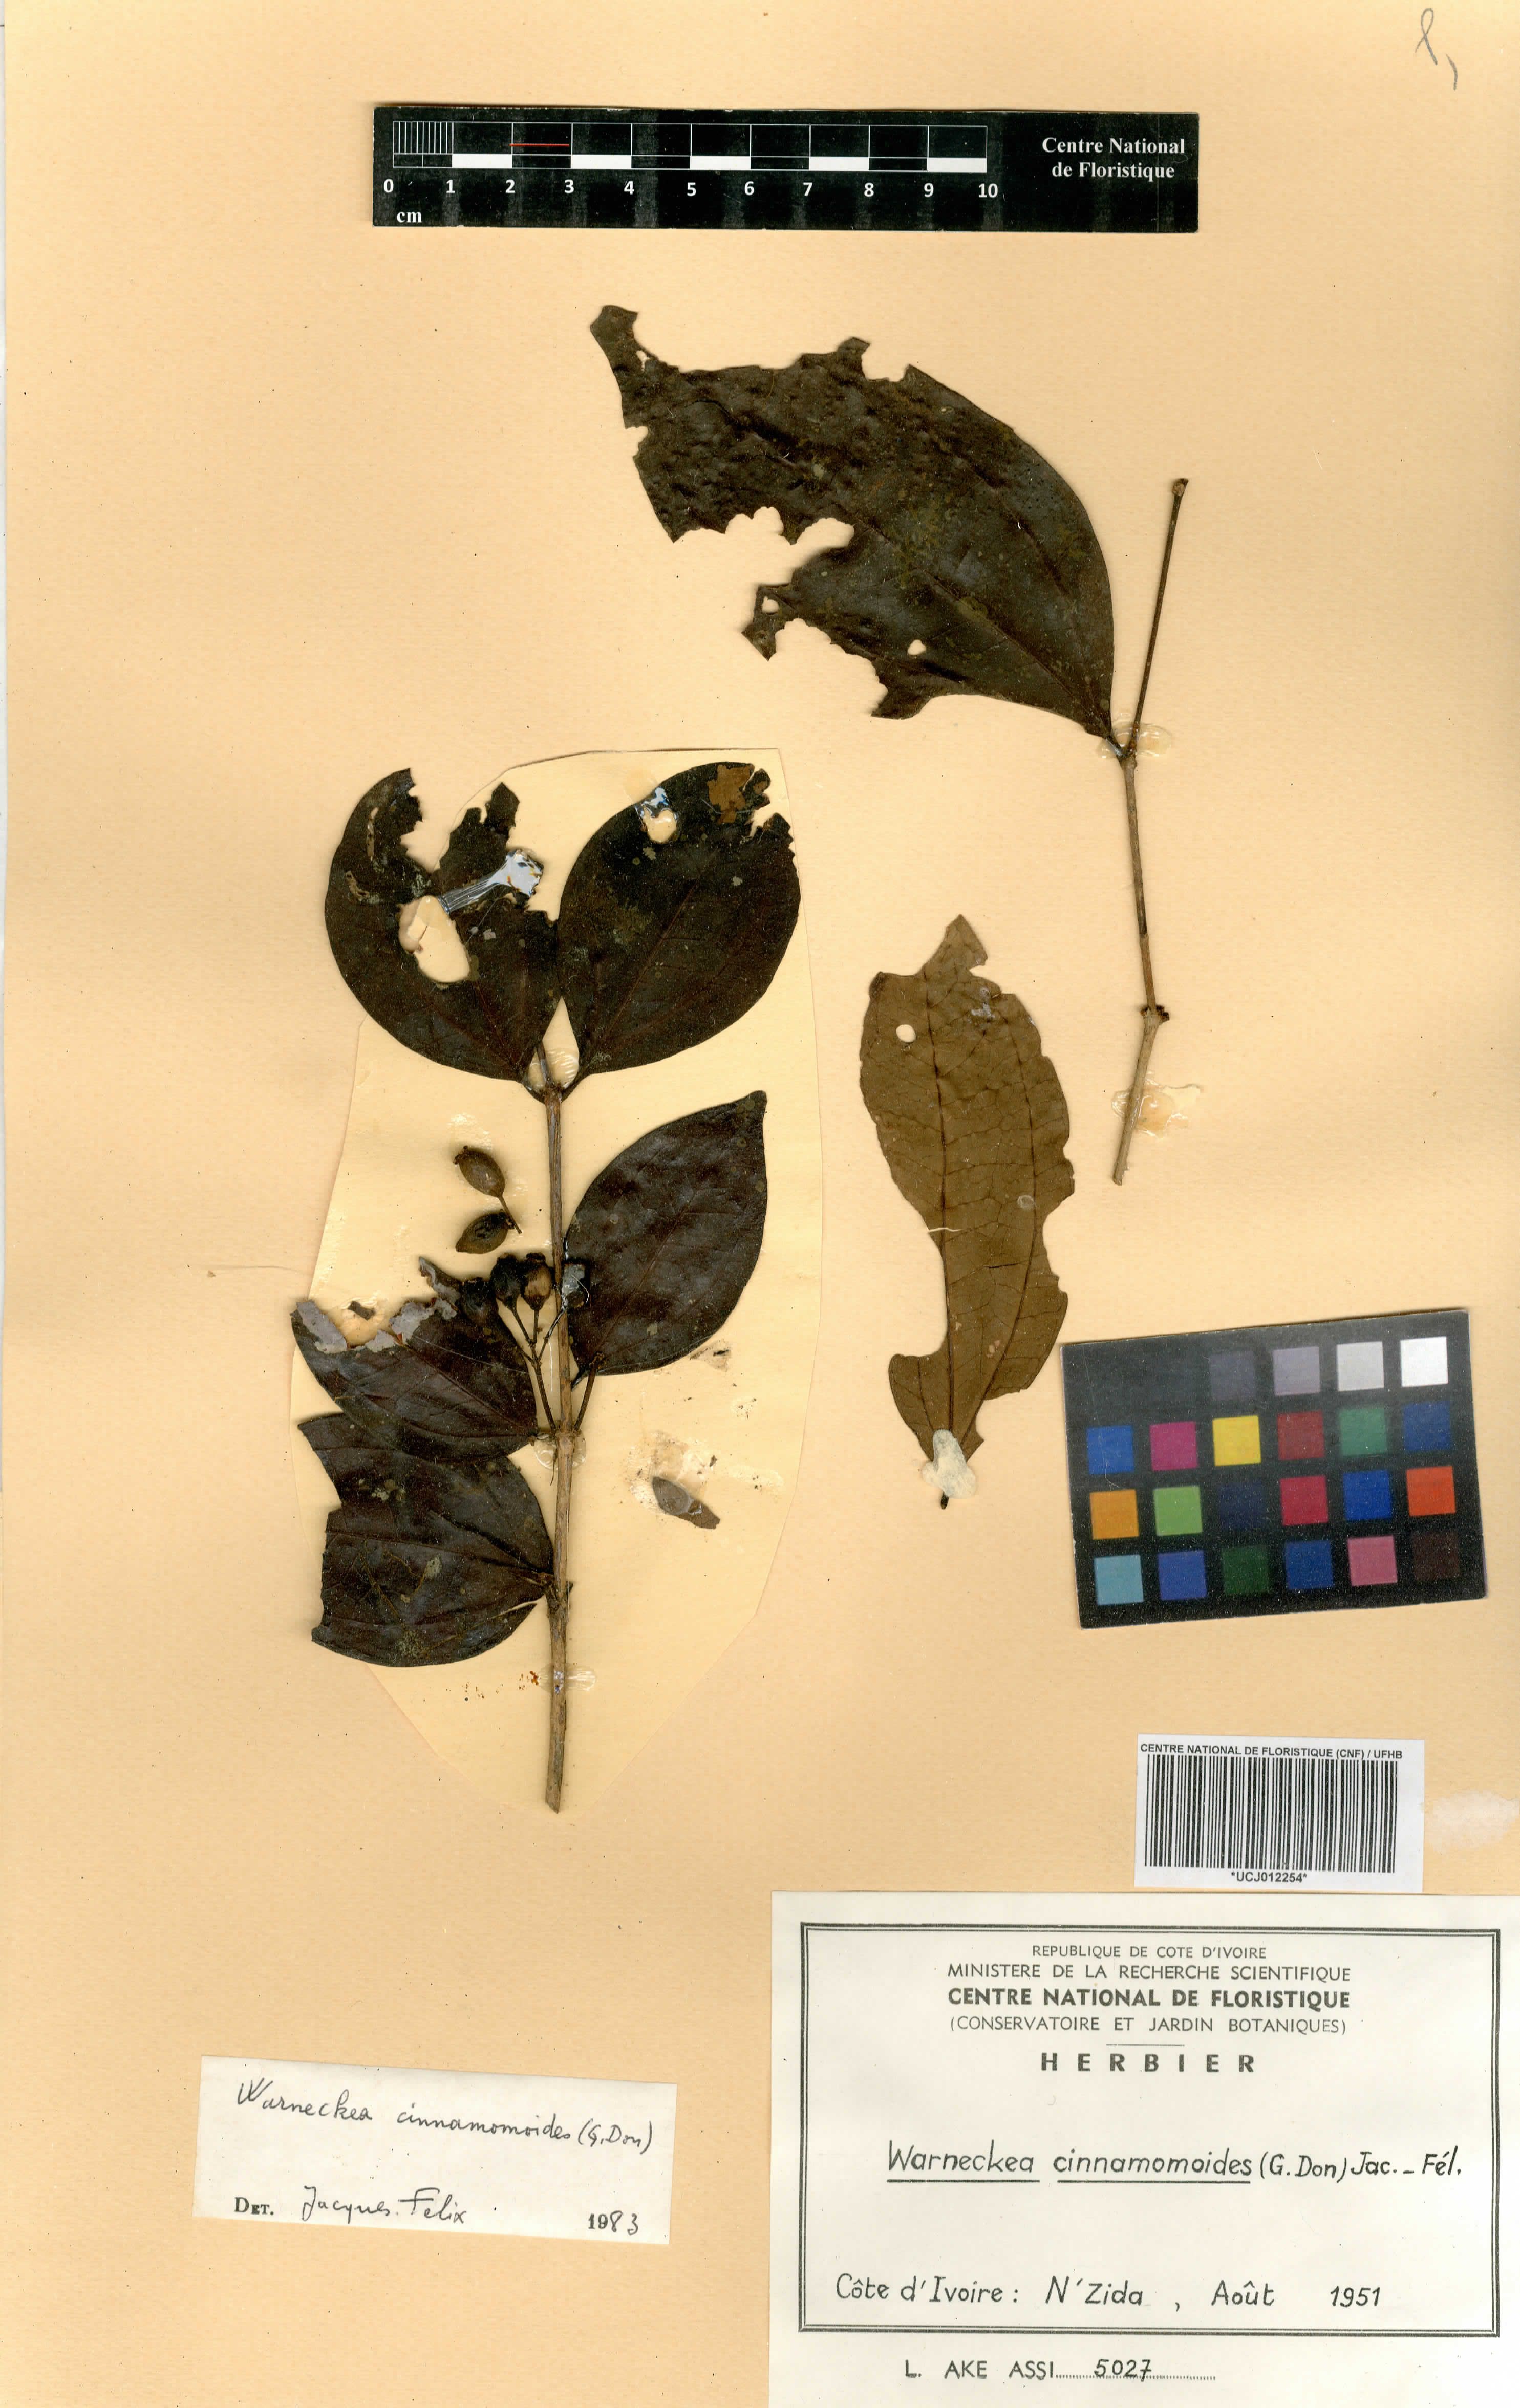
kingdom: Plantae
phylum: Tracheophyta
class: Magnoliopsida
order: Myrtales
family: Melastomataceae
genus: Warneckea
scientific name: Warneckea cinnamomoides
